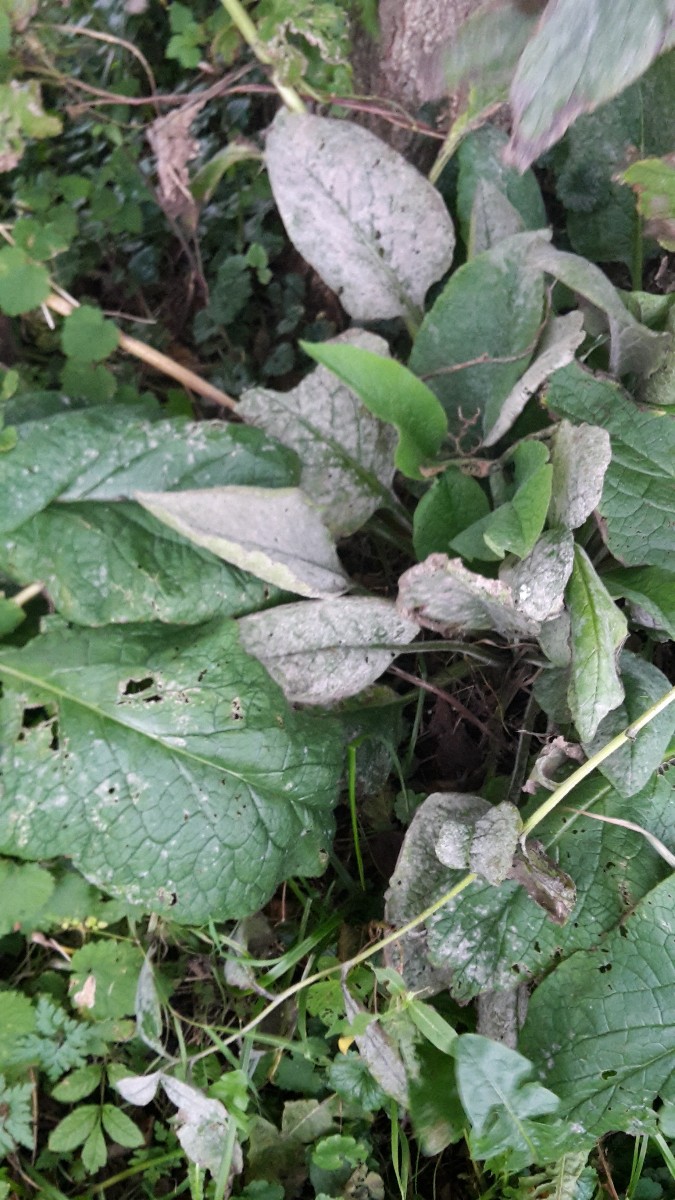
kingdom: Fungi
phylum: Ascomycota
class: Leotiomycetes
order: Helotiales
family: Erysiphaceae
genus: Golovinomyces
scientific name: Golovinomyces asperifoliorum
